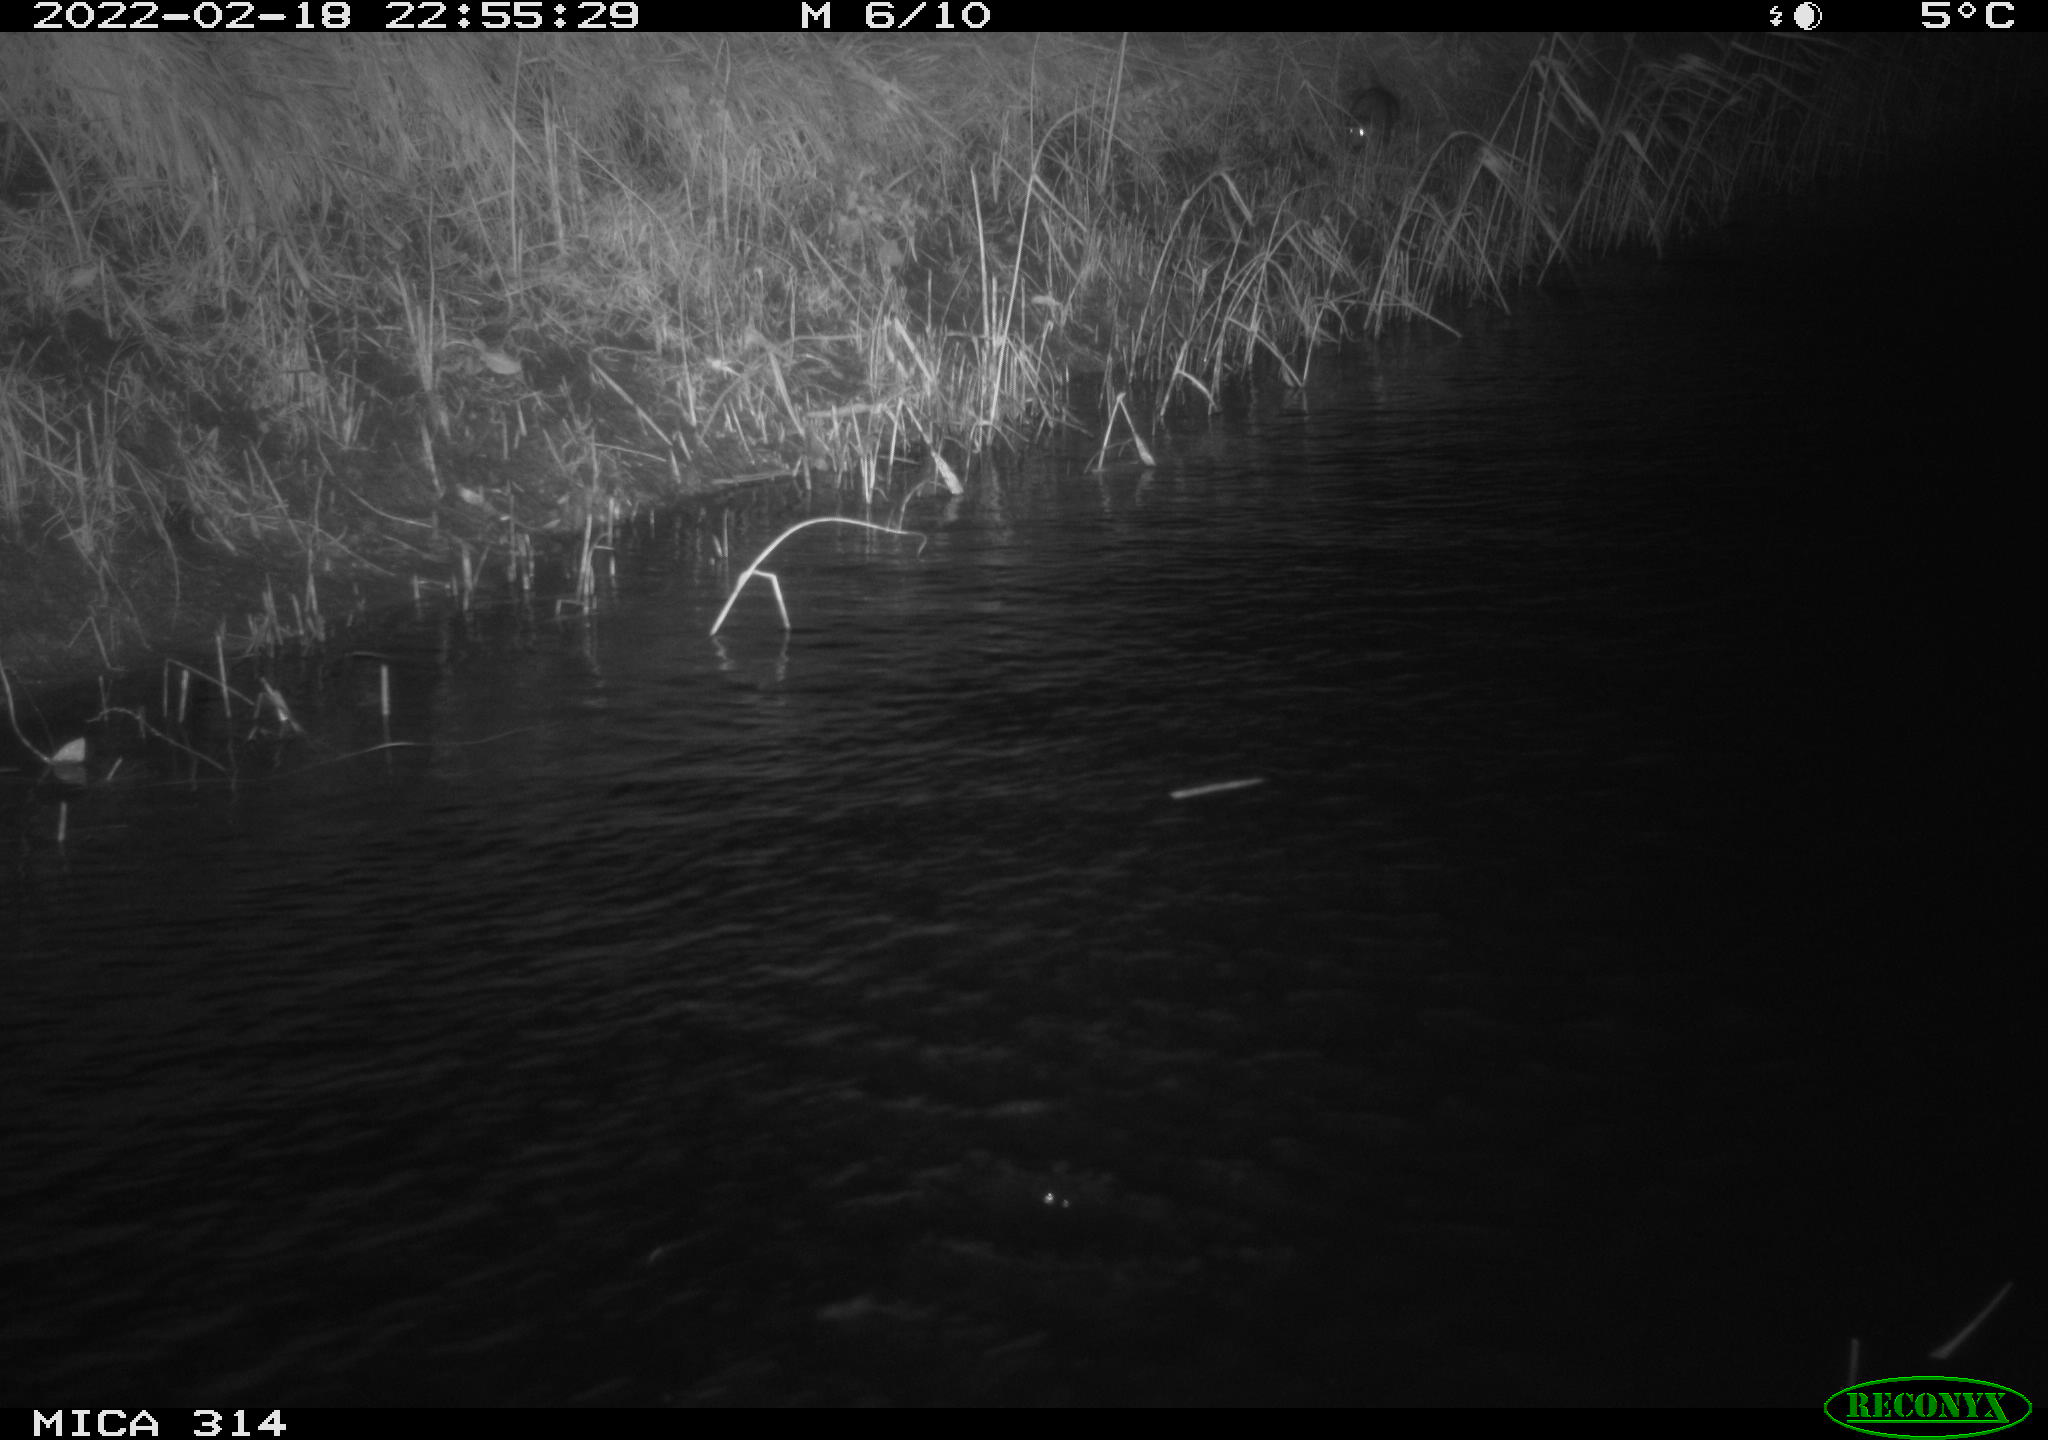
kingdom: Animalia
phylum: Chordata
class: Mammalia
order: Rodentia
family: Muridae
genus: Rattus
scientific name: Rattus norvegicus
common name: Brown rat
